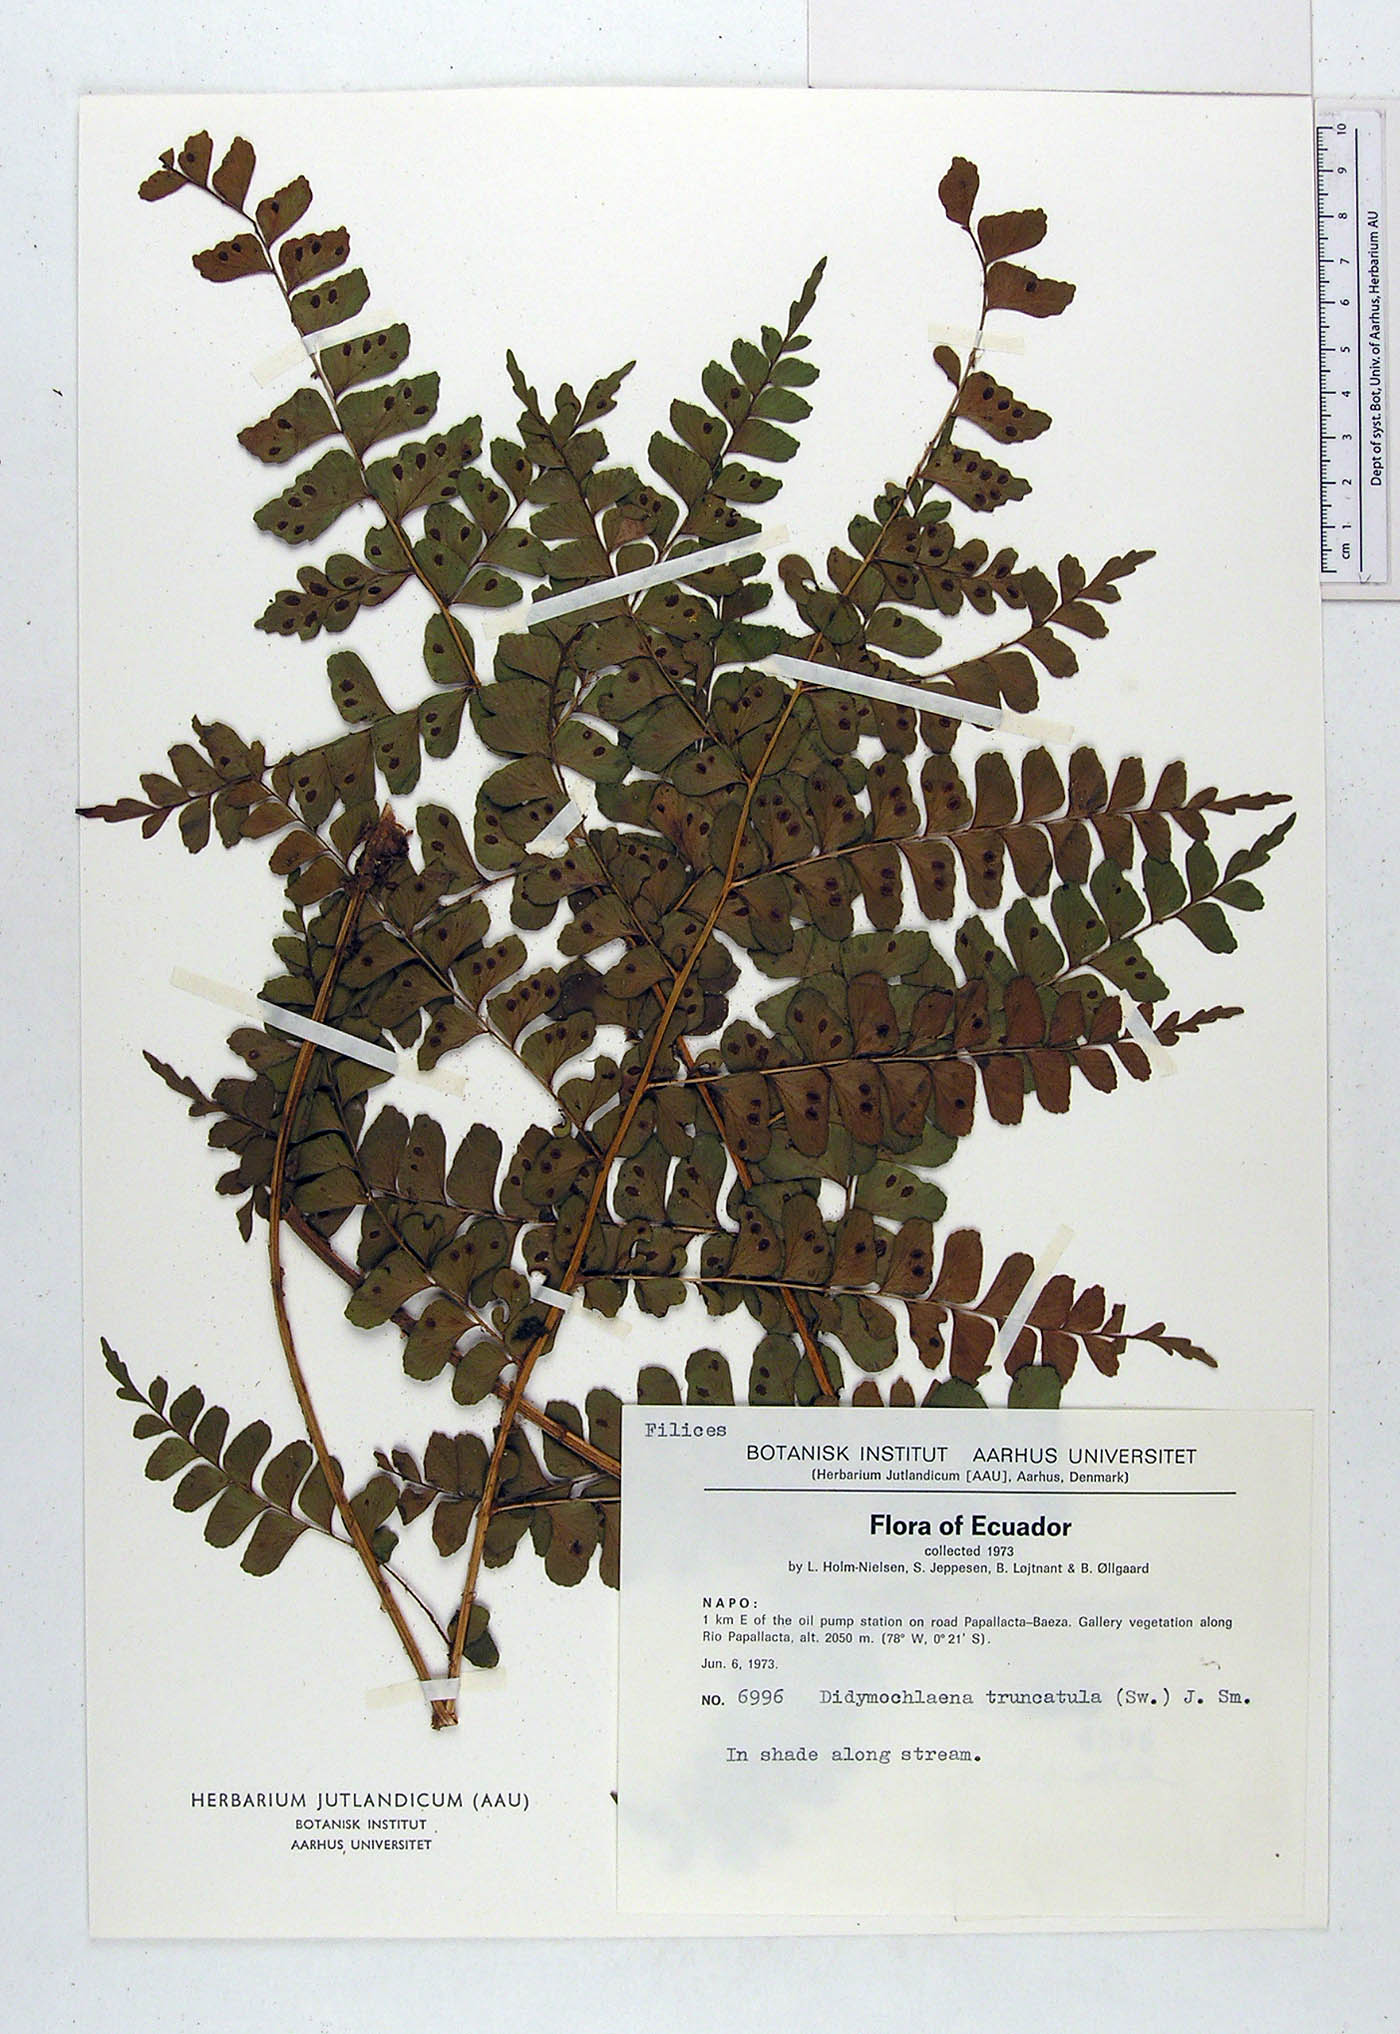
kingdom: Plantae
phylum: Tracheophyta
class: Polypodiopsida
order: Polypodiales
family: Didymochlaenaceae
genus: Didymochlaena
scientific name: Didymochlaena truncatula
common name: Mahogany fern
